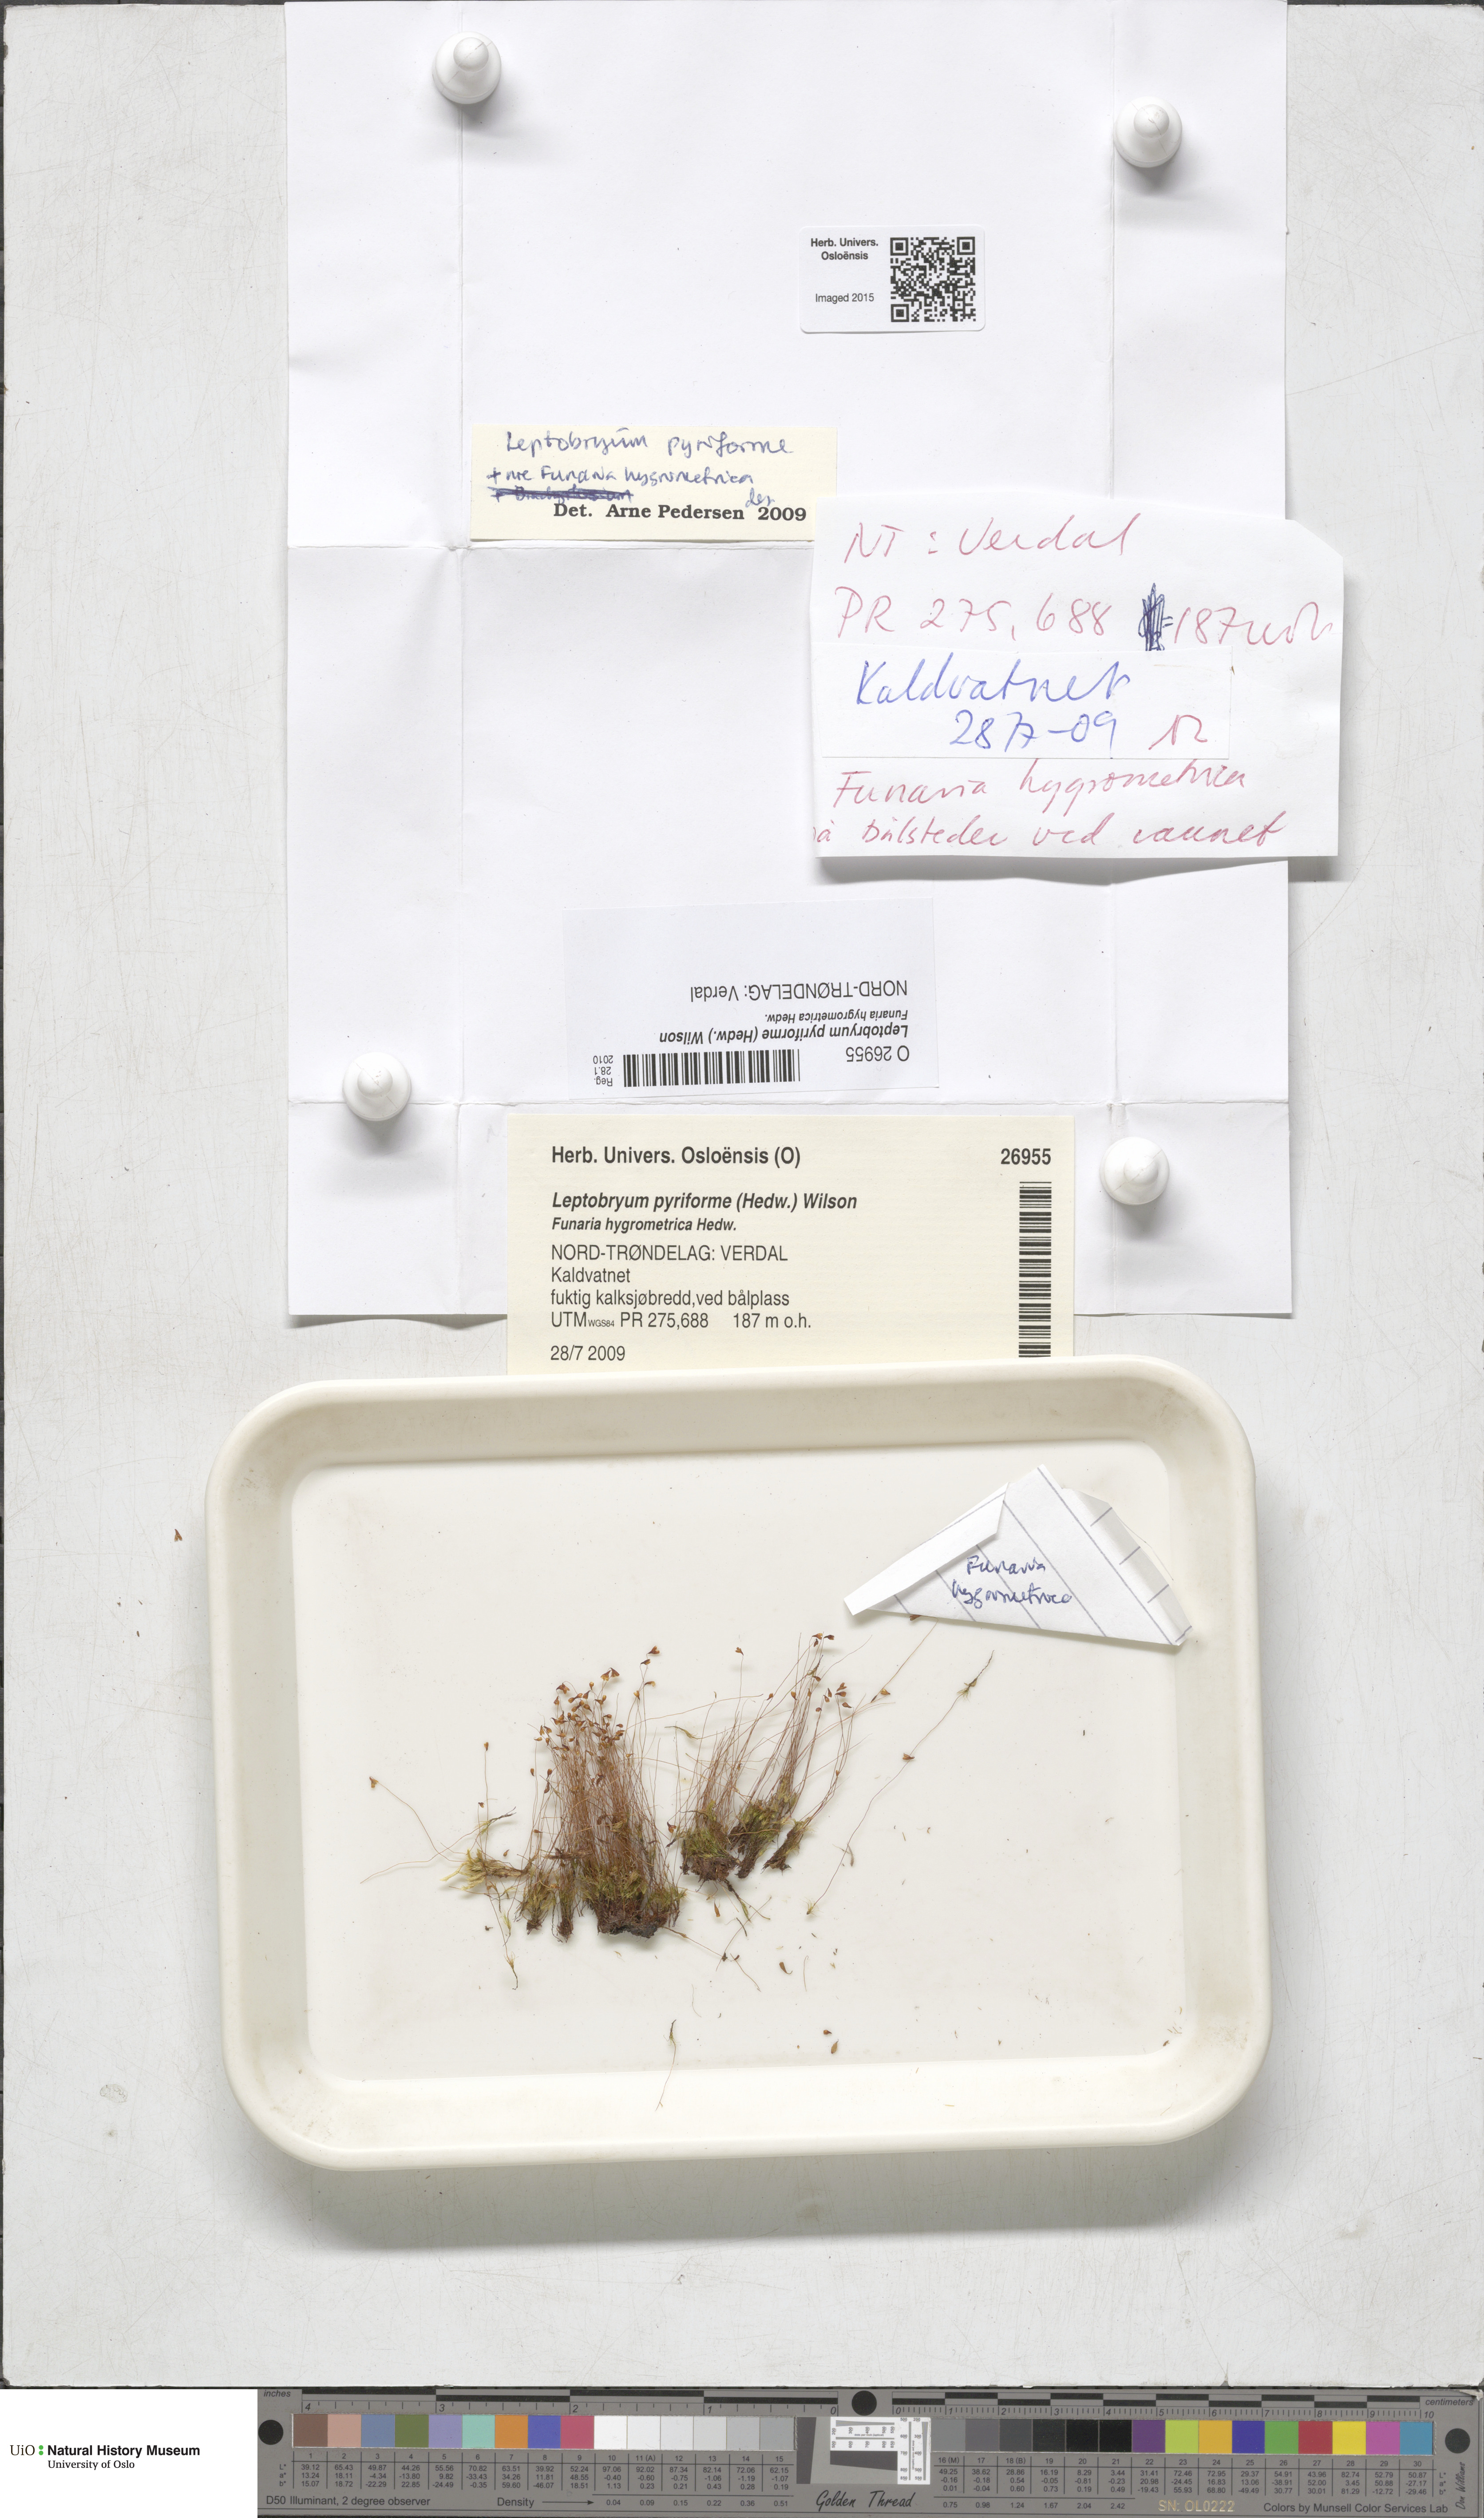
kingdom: Plantae
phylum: Bryophyta
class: Bryopsida
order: Splachnales
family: Meesiaceae
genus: Leptobryum
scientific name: Leptobryum pyriforme
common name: Golden thread moss
